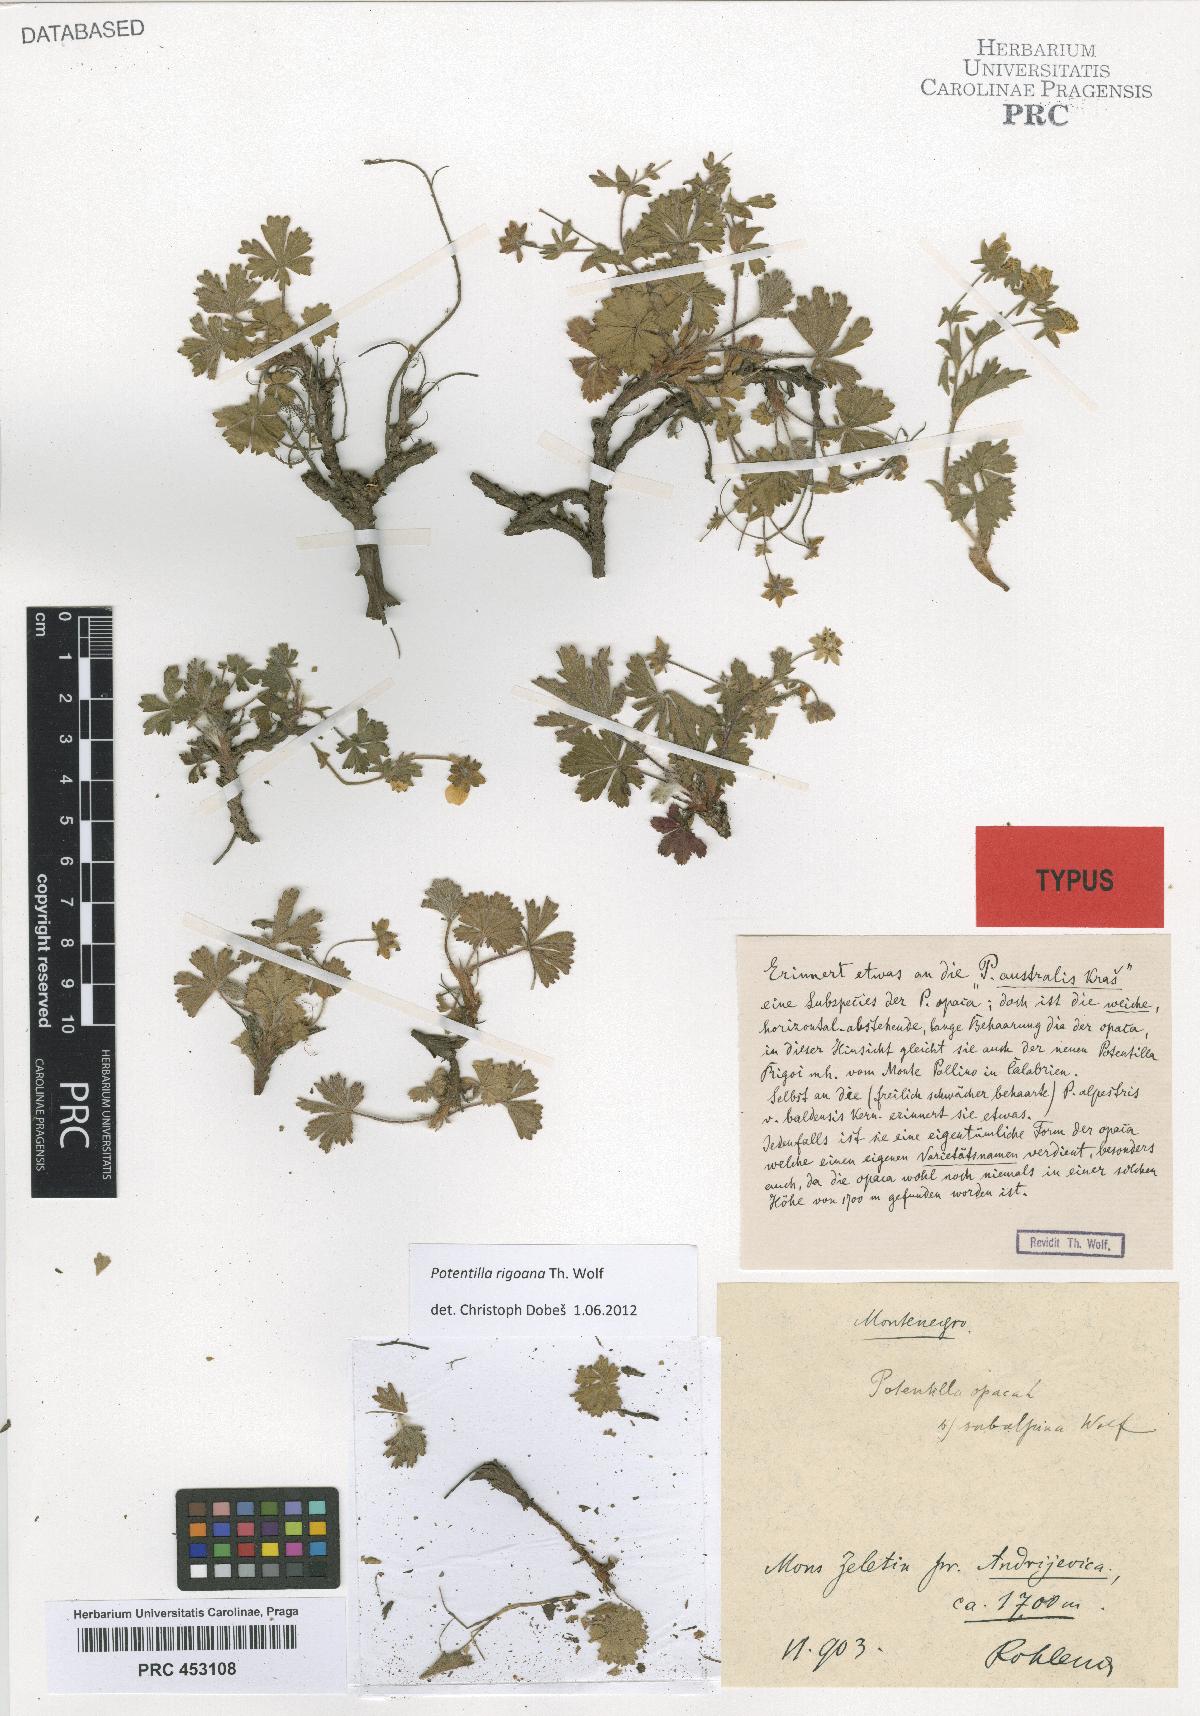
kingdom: Plantae
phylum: Tracheophyta
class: Magnoliopsida
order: Rosales
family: Rosaceae
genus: Potentilla
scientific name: Potentilla rigoana
